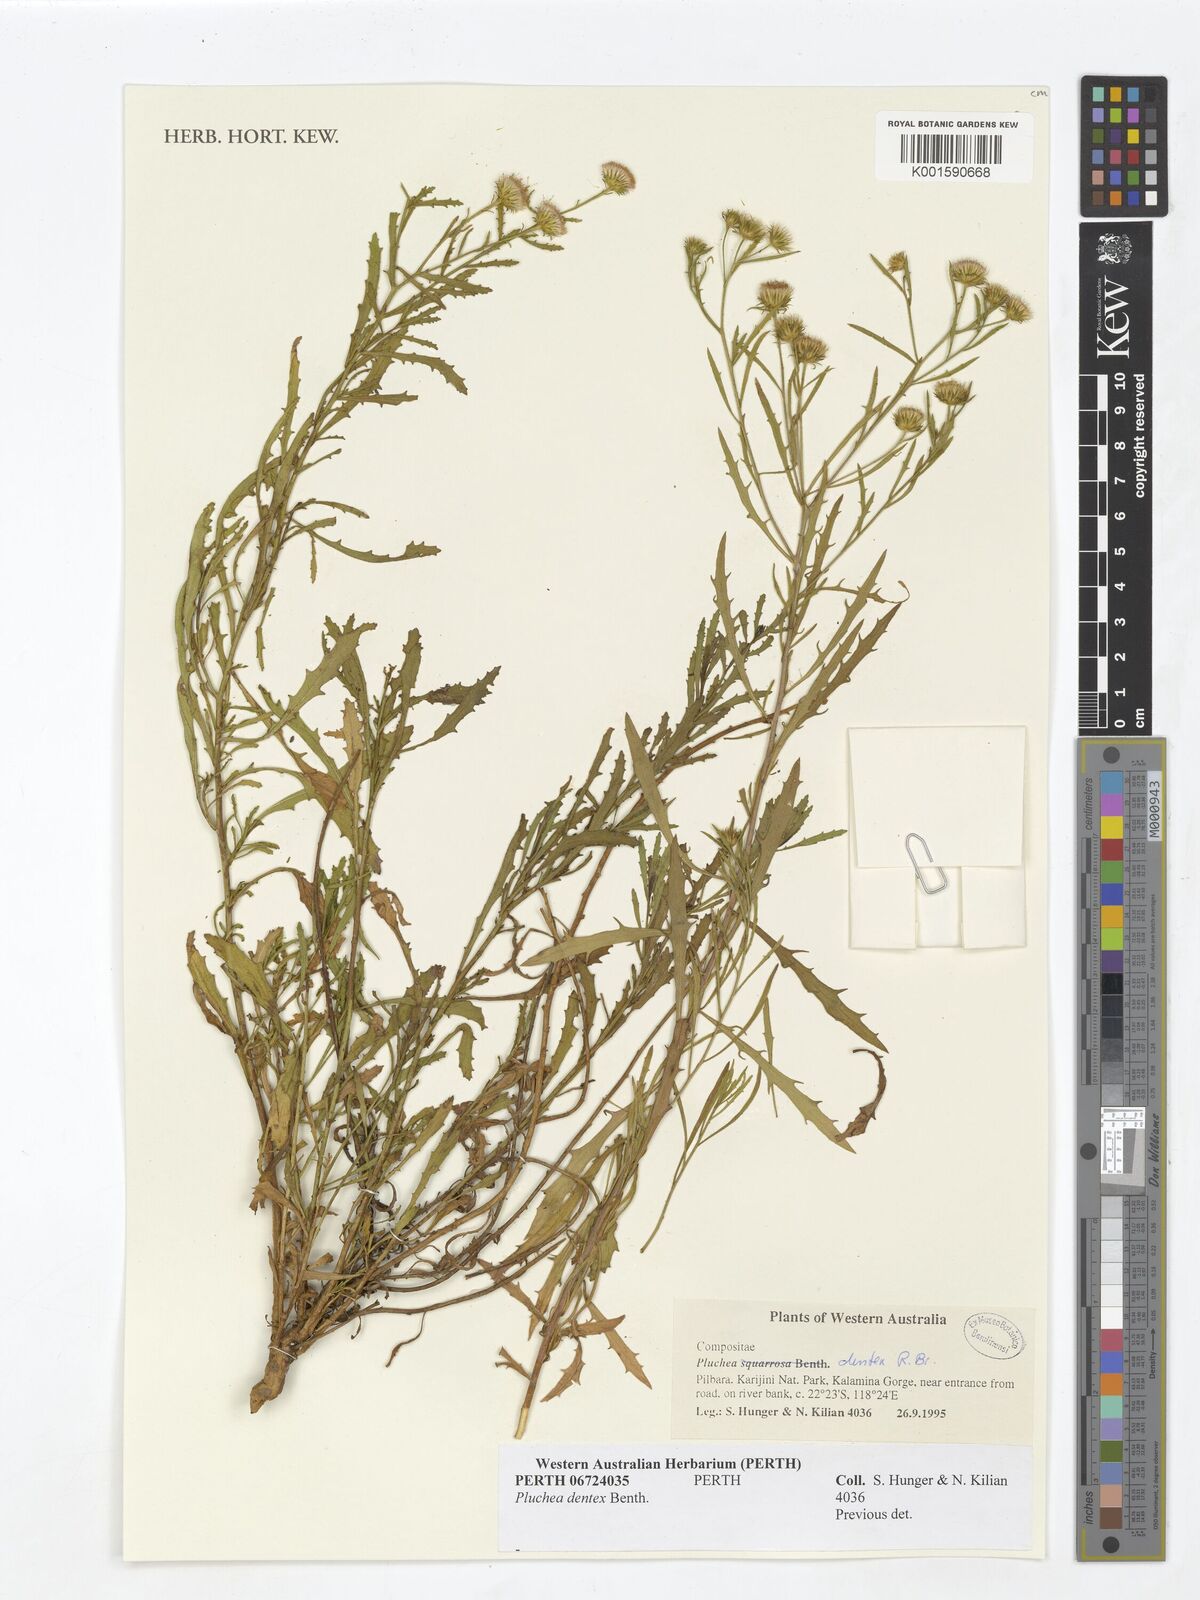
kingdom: Plantae
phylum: Tracheophyta
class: Magnoliopsida
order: Asterales
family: Asteraceae
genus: Pluchea
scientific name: Pluchea dentex
